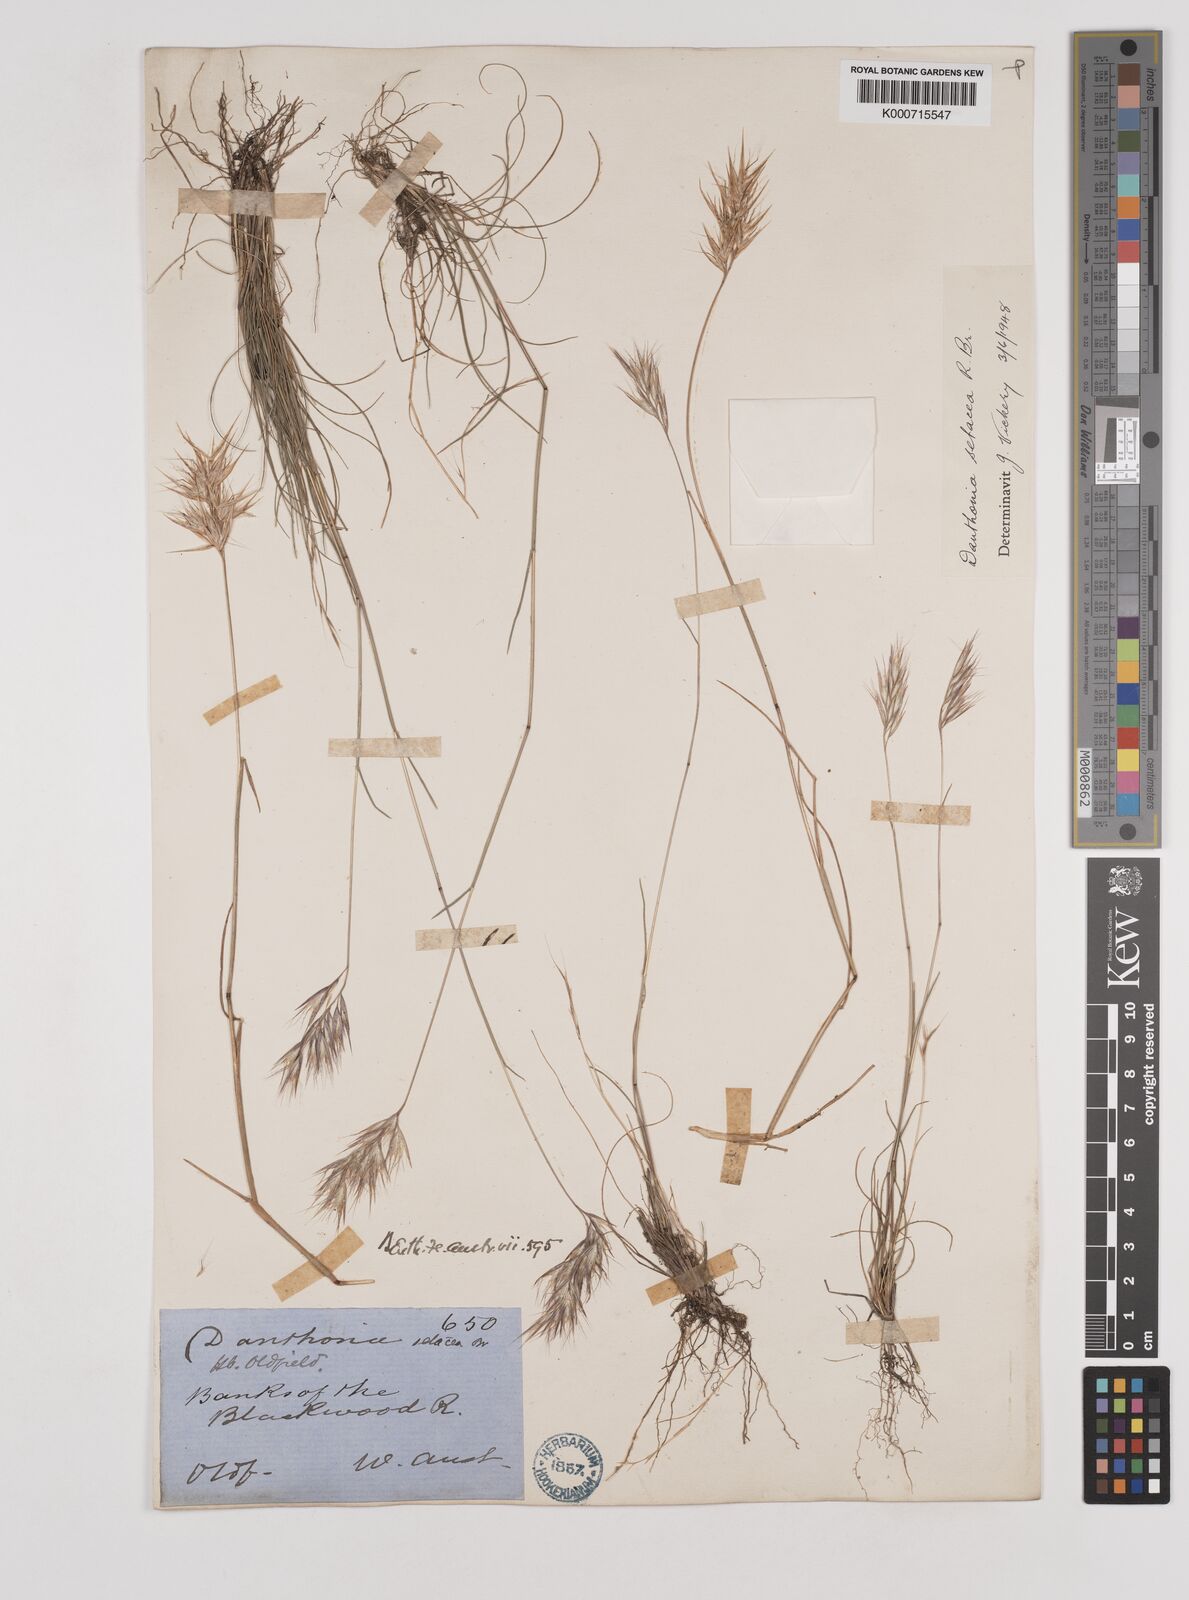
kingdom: Plantae
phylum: Tracheophyta
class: Liliopsida
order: Poales
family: Poaceae
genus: Rytidosperma
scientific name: Rytidosperma setaceum
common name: Small-flower wallaby grass
